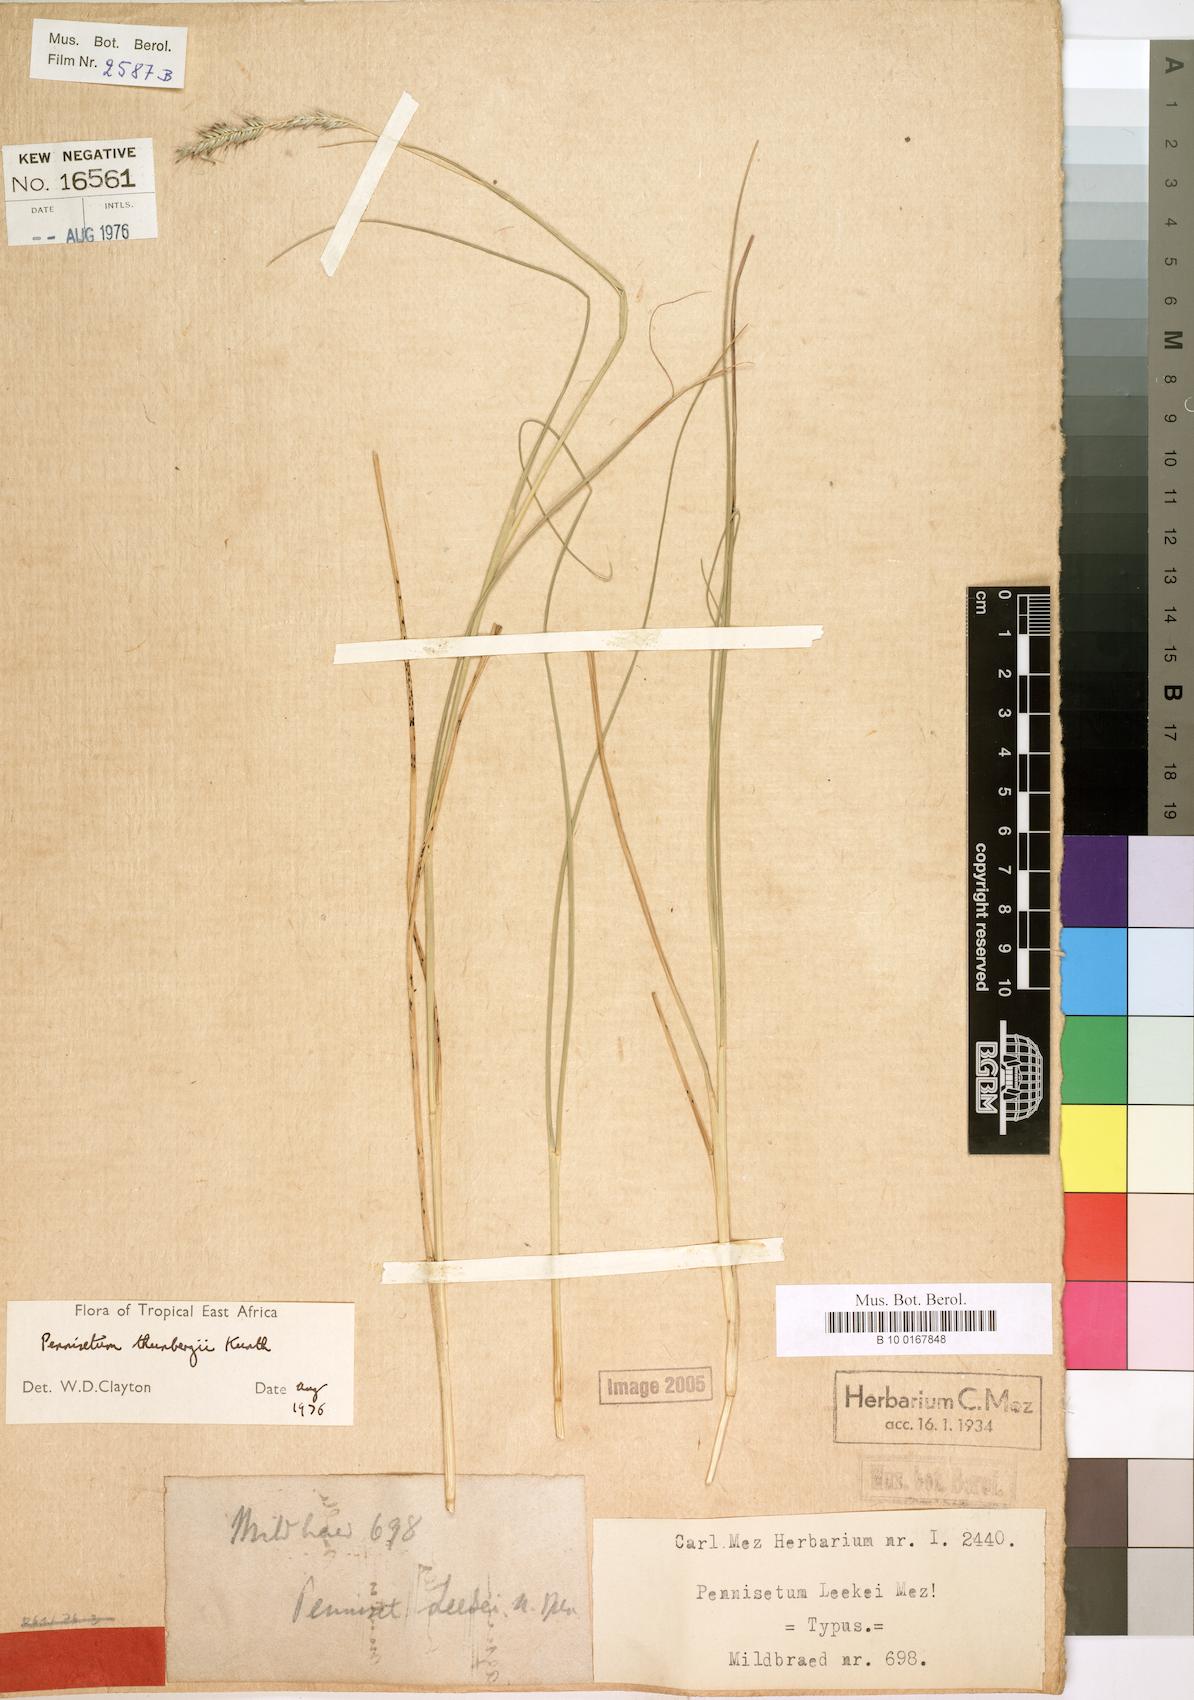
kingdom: Plantae
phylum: Tracheophyta
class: Liliopsida
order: Poales
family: Poaceae
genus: Cenchrus
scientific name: Cenchrus geniculatus
